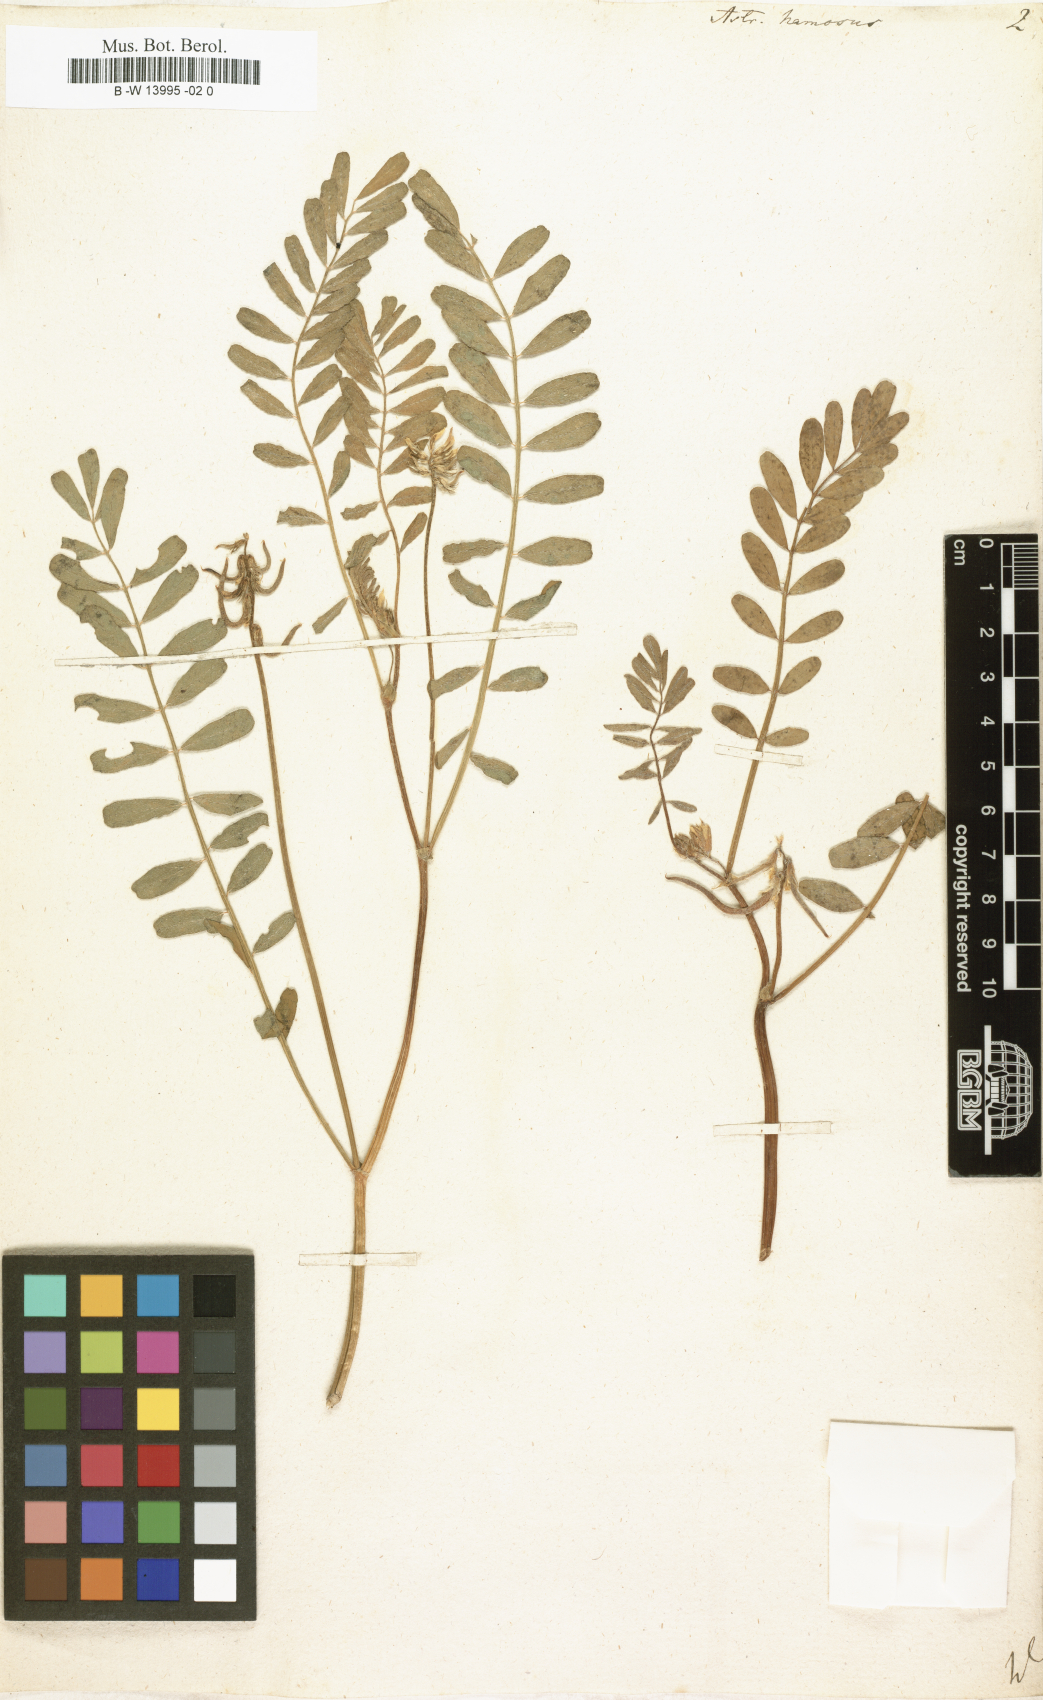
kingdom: Plantae
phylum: Tracheophyta
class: Magnoliopsida
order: Fabales
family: Fabaceae
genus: Astragalus
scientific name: Astragalus hamosus
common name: European milkvetch
